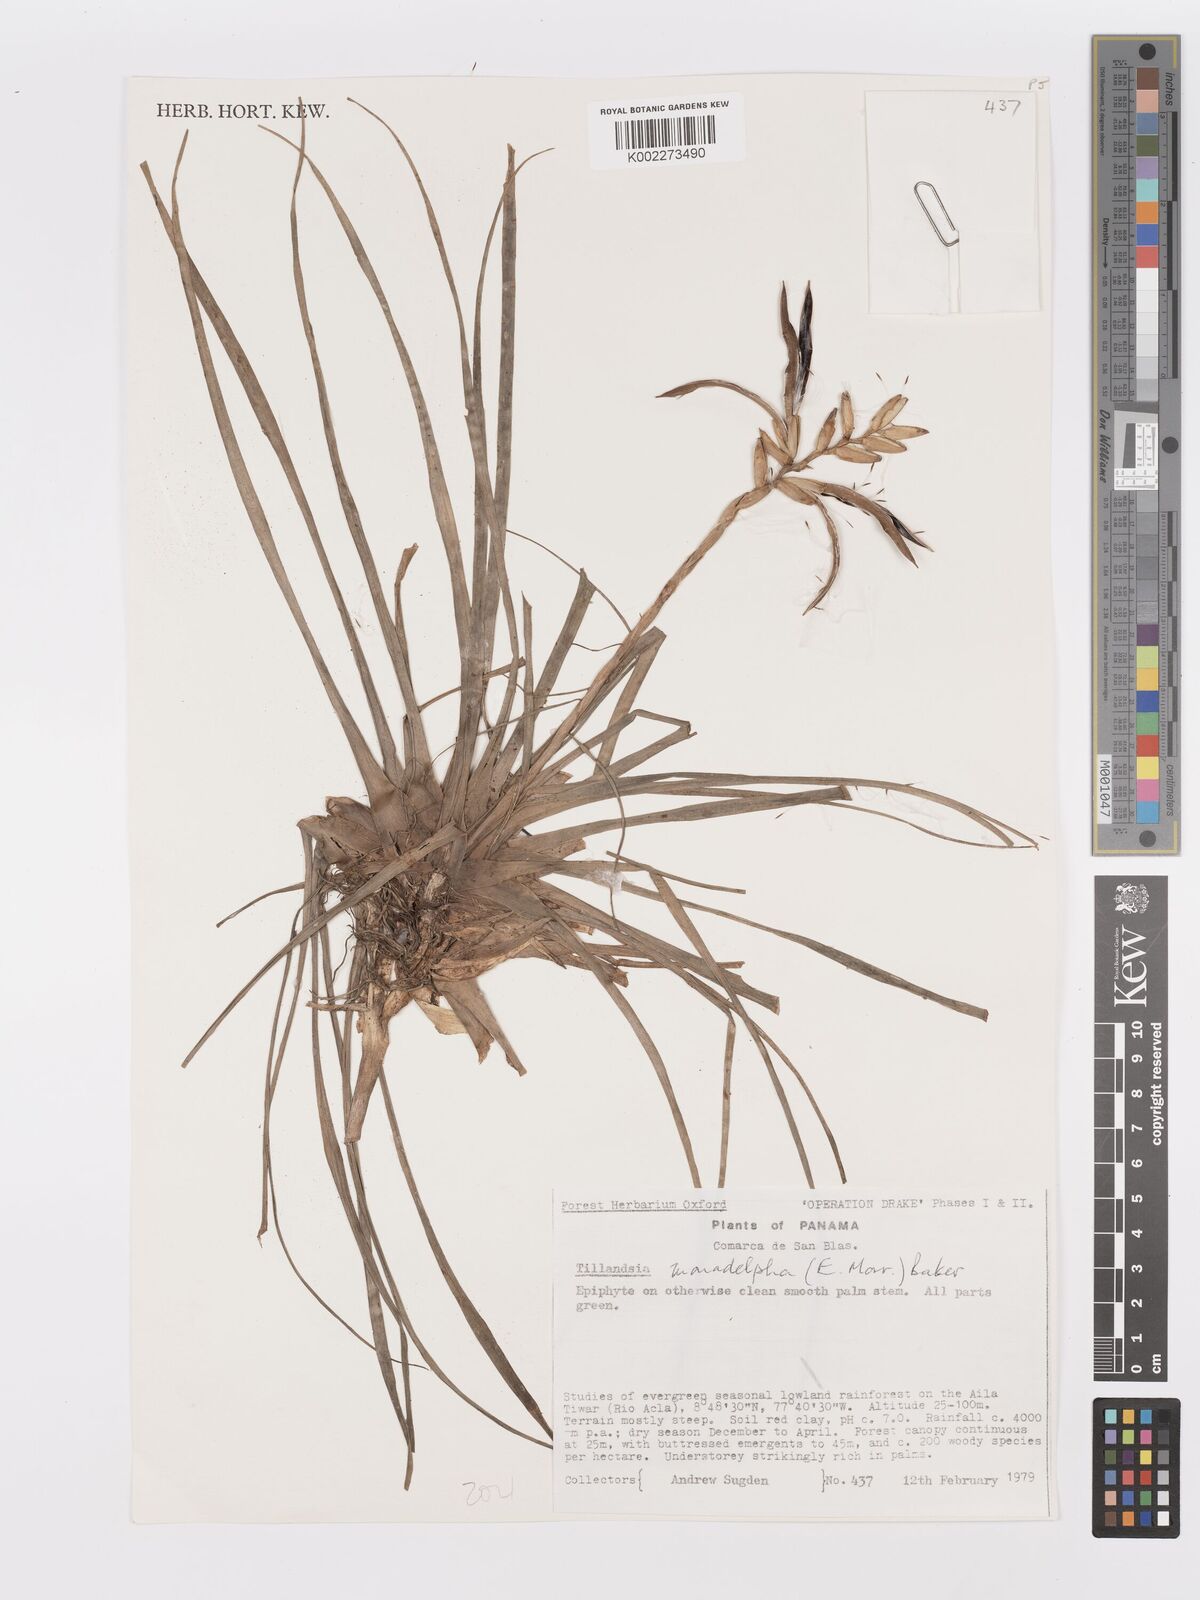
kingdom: Plantae
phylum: Tracheophyta
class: Liliopsida
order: Poales
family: Bromeliaceae
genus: Lemeltonia
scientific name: Lemeltonia monadelpha
